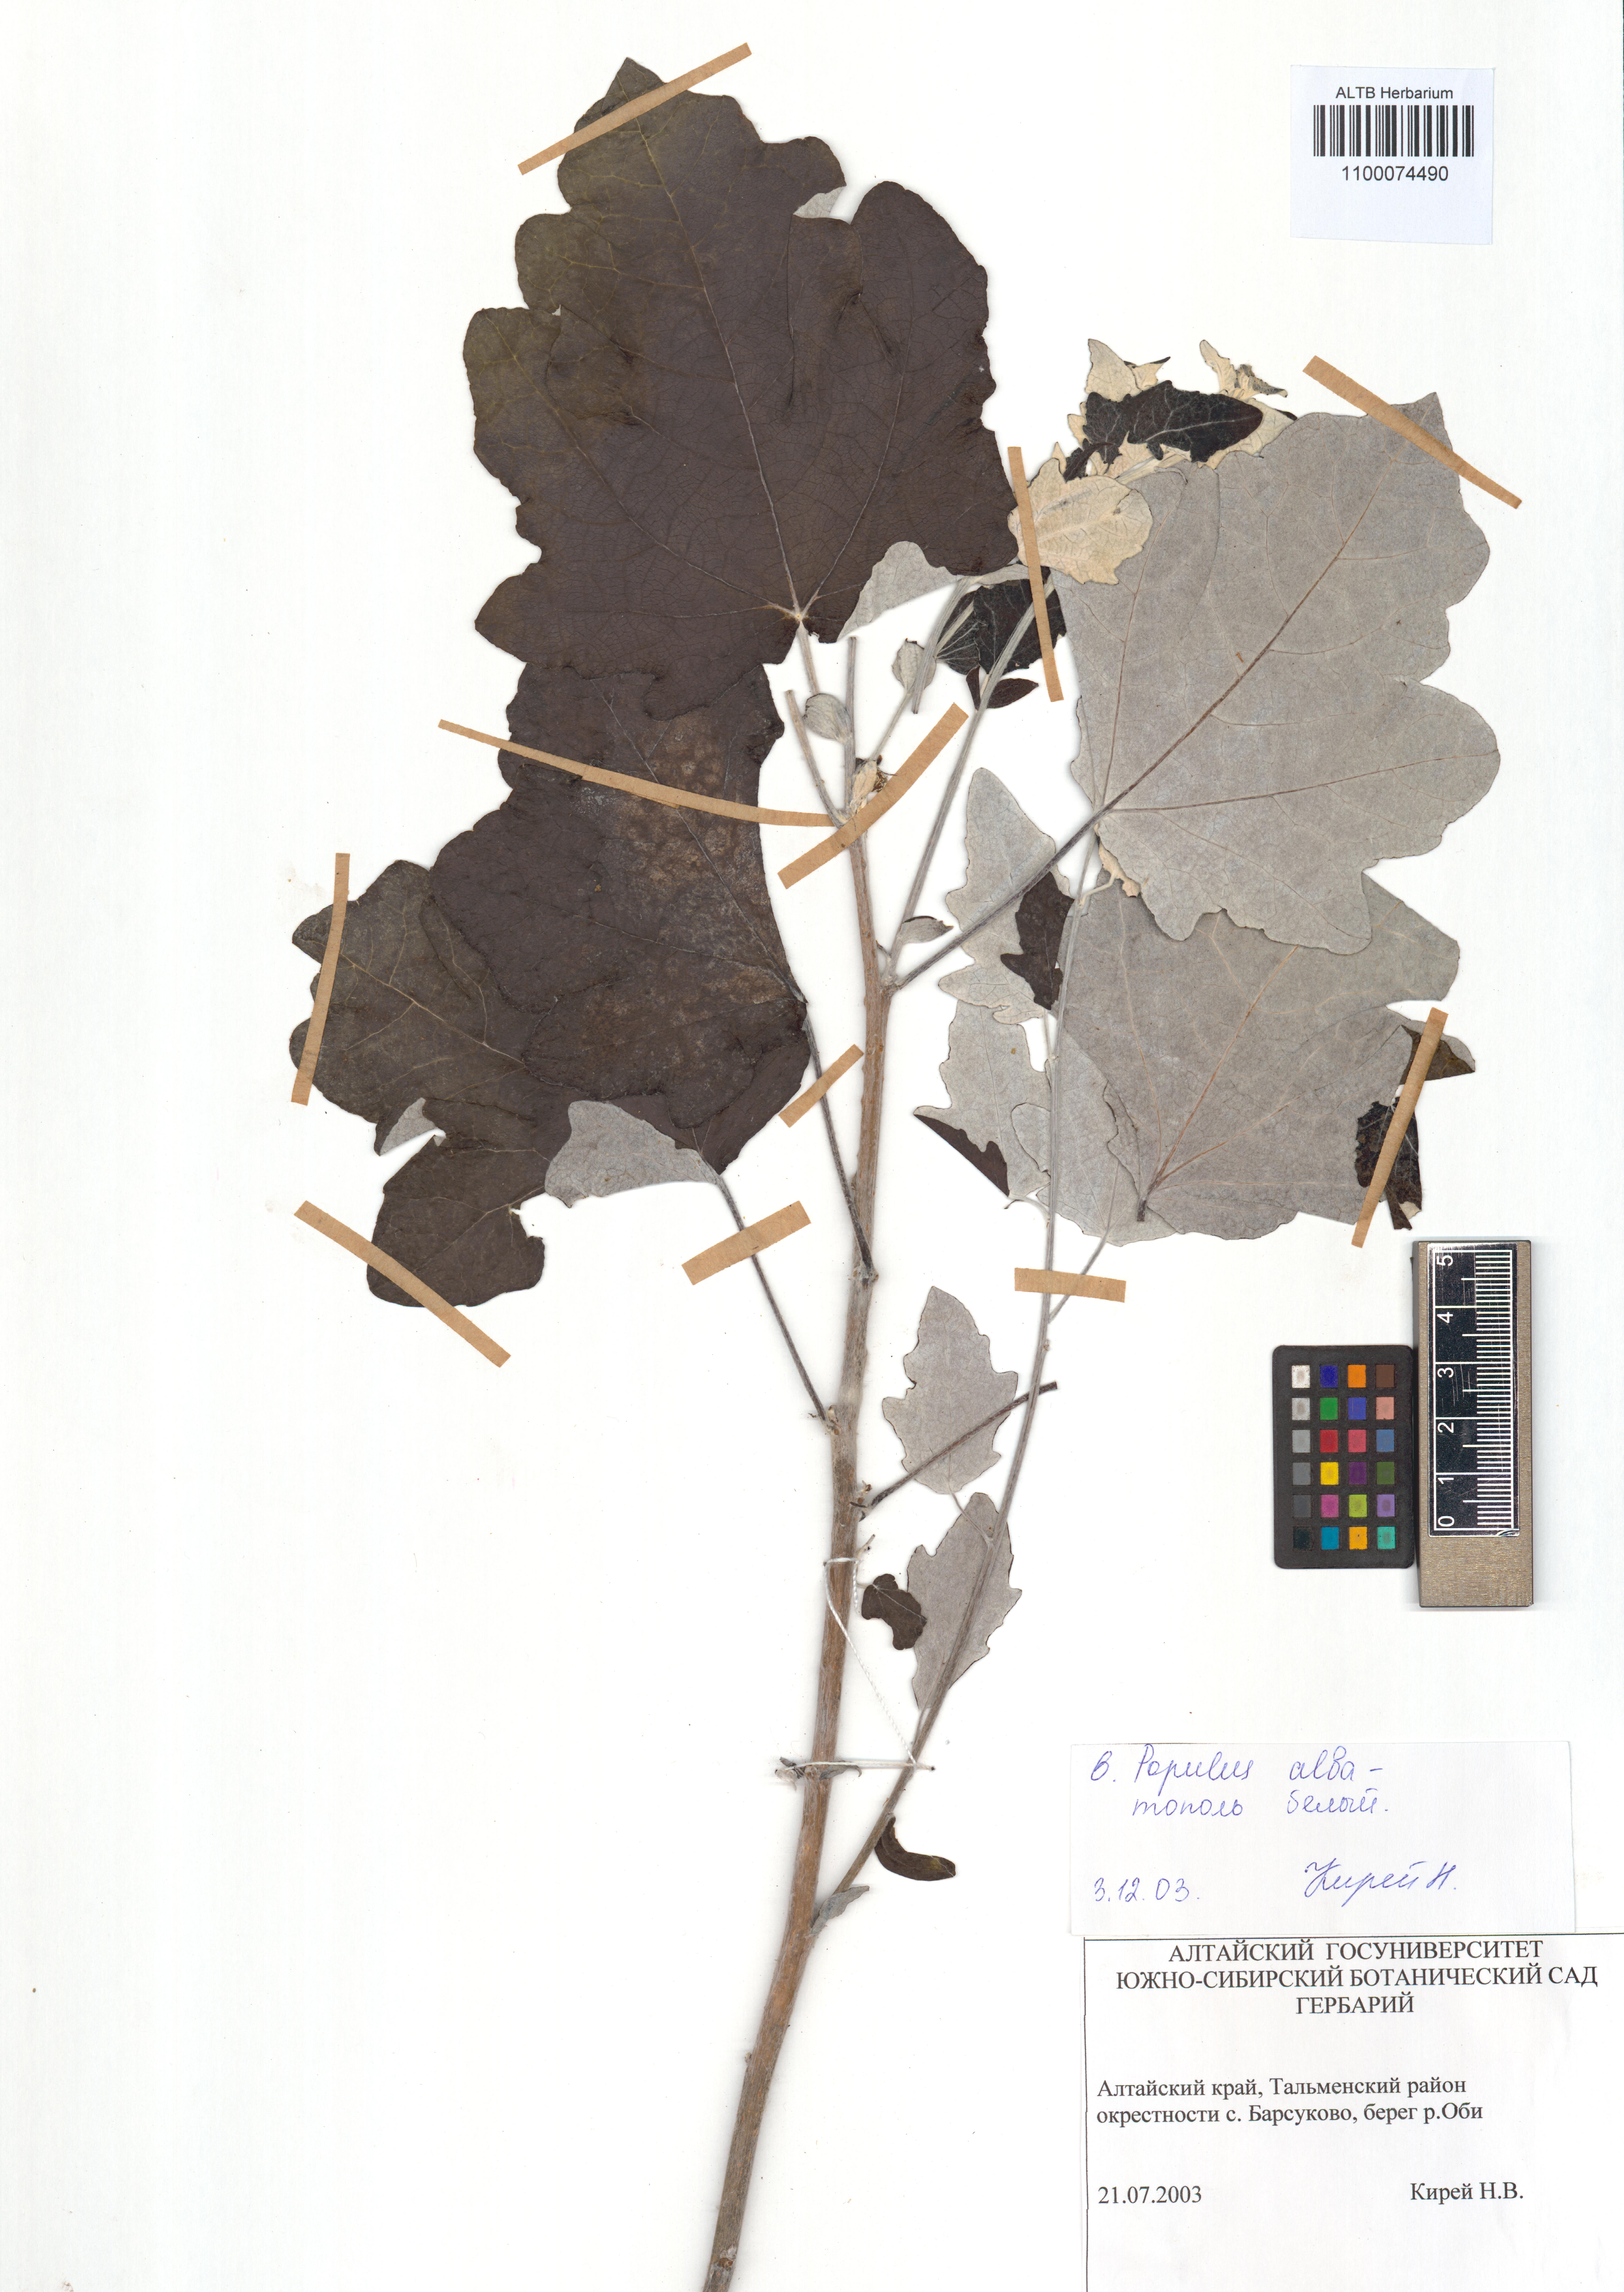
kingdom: Plantae
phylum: Tracheophyta
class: Magnoliopsida
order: Malpighiales
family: Salicaceae
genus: Populus
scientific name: Populus alba
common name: White poplar
